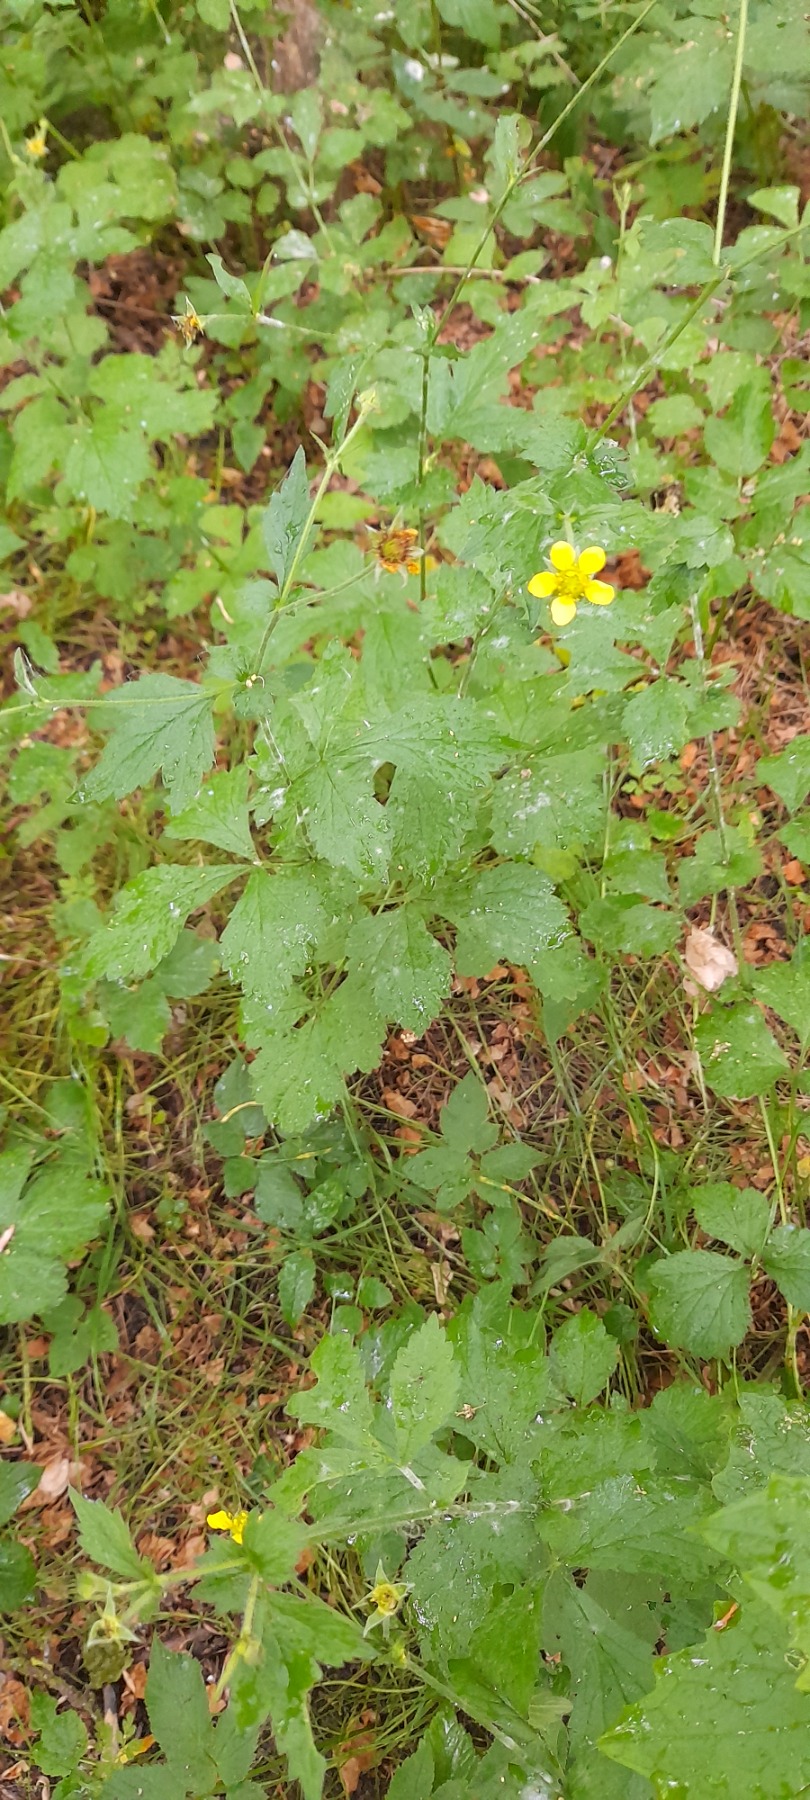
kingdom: Plantae
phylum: Tracheophyta
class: Magnoliopsida
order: Rosales
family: Rosaceae
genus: Geum
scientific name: Geum urbanum
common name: Feber-nellikerod
